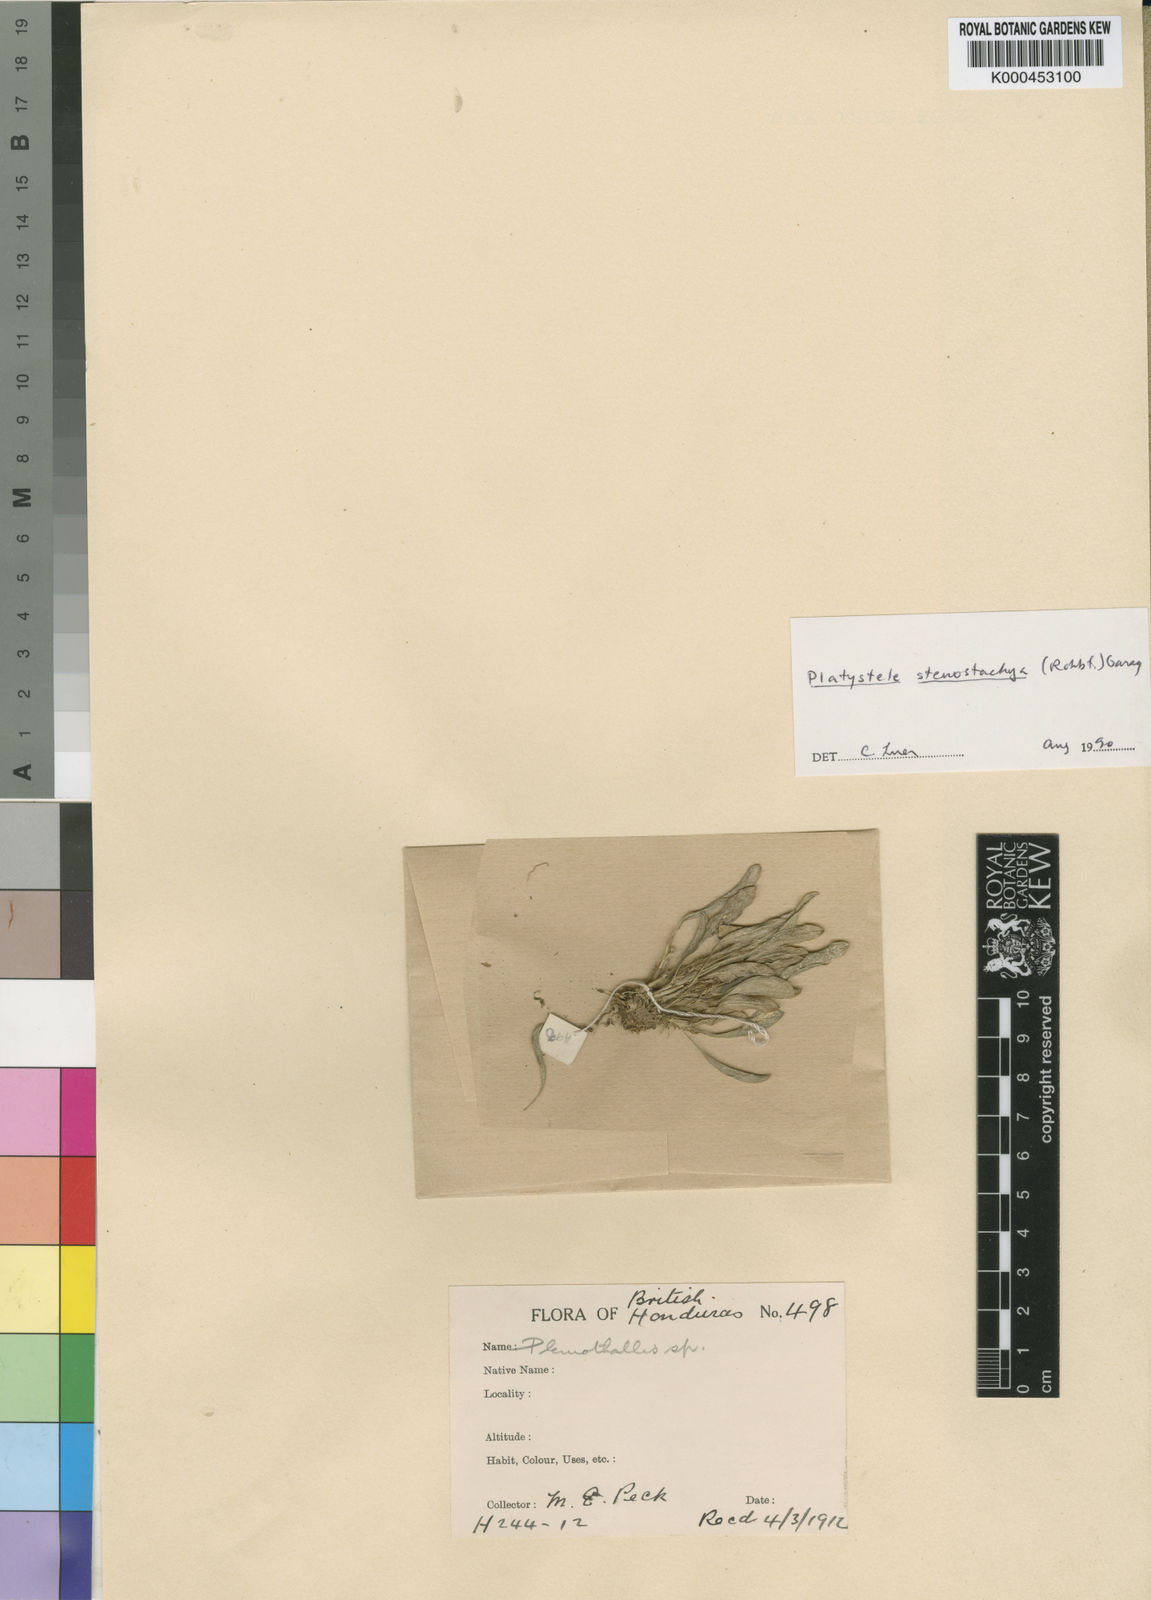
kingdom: Plantae
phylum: Tracheophyta
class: Liliopsida
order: Asparagales
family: Orchidaceae
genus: Platystele
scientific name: Platystele stenostachya
